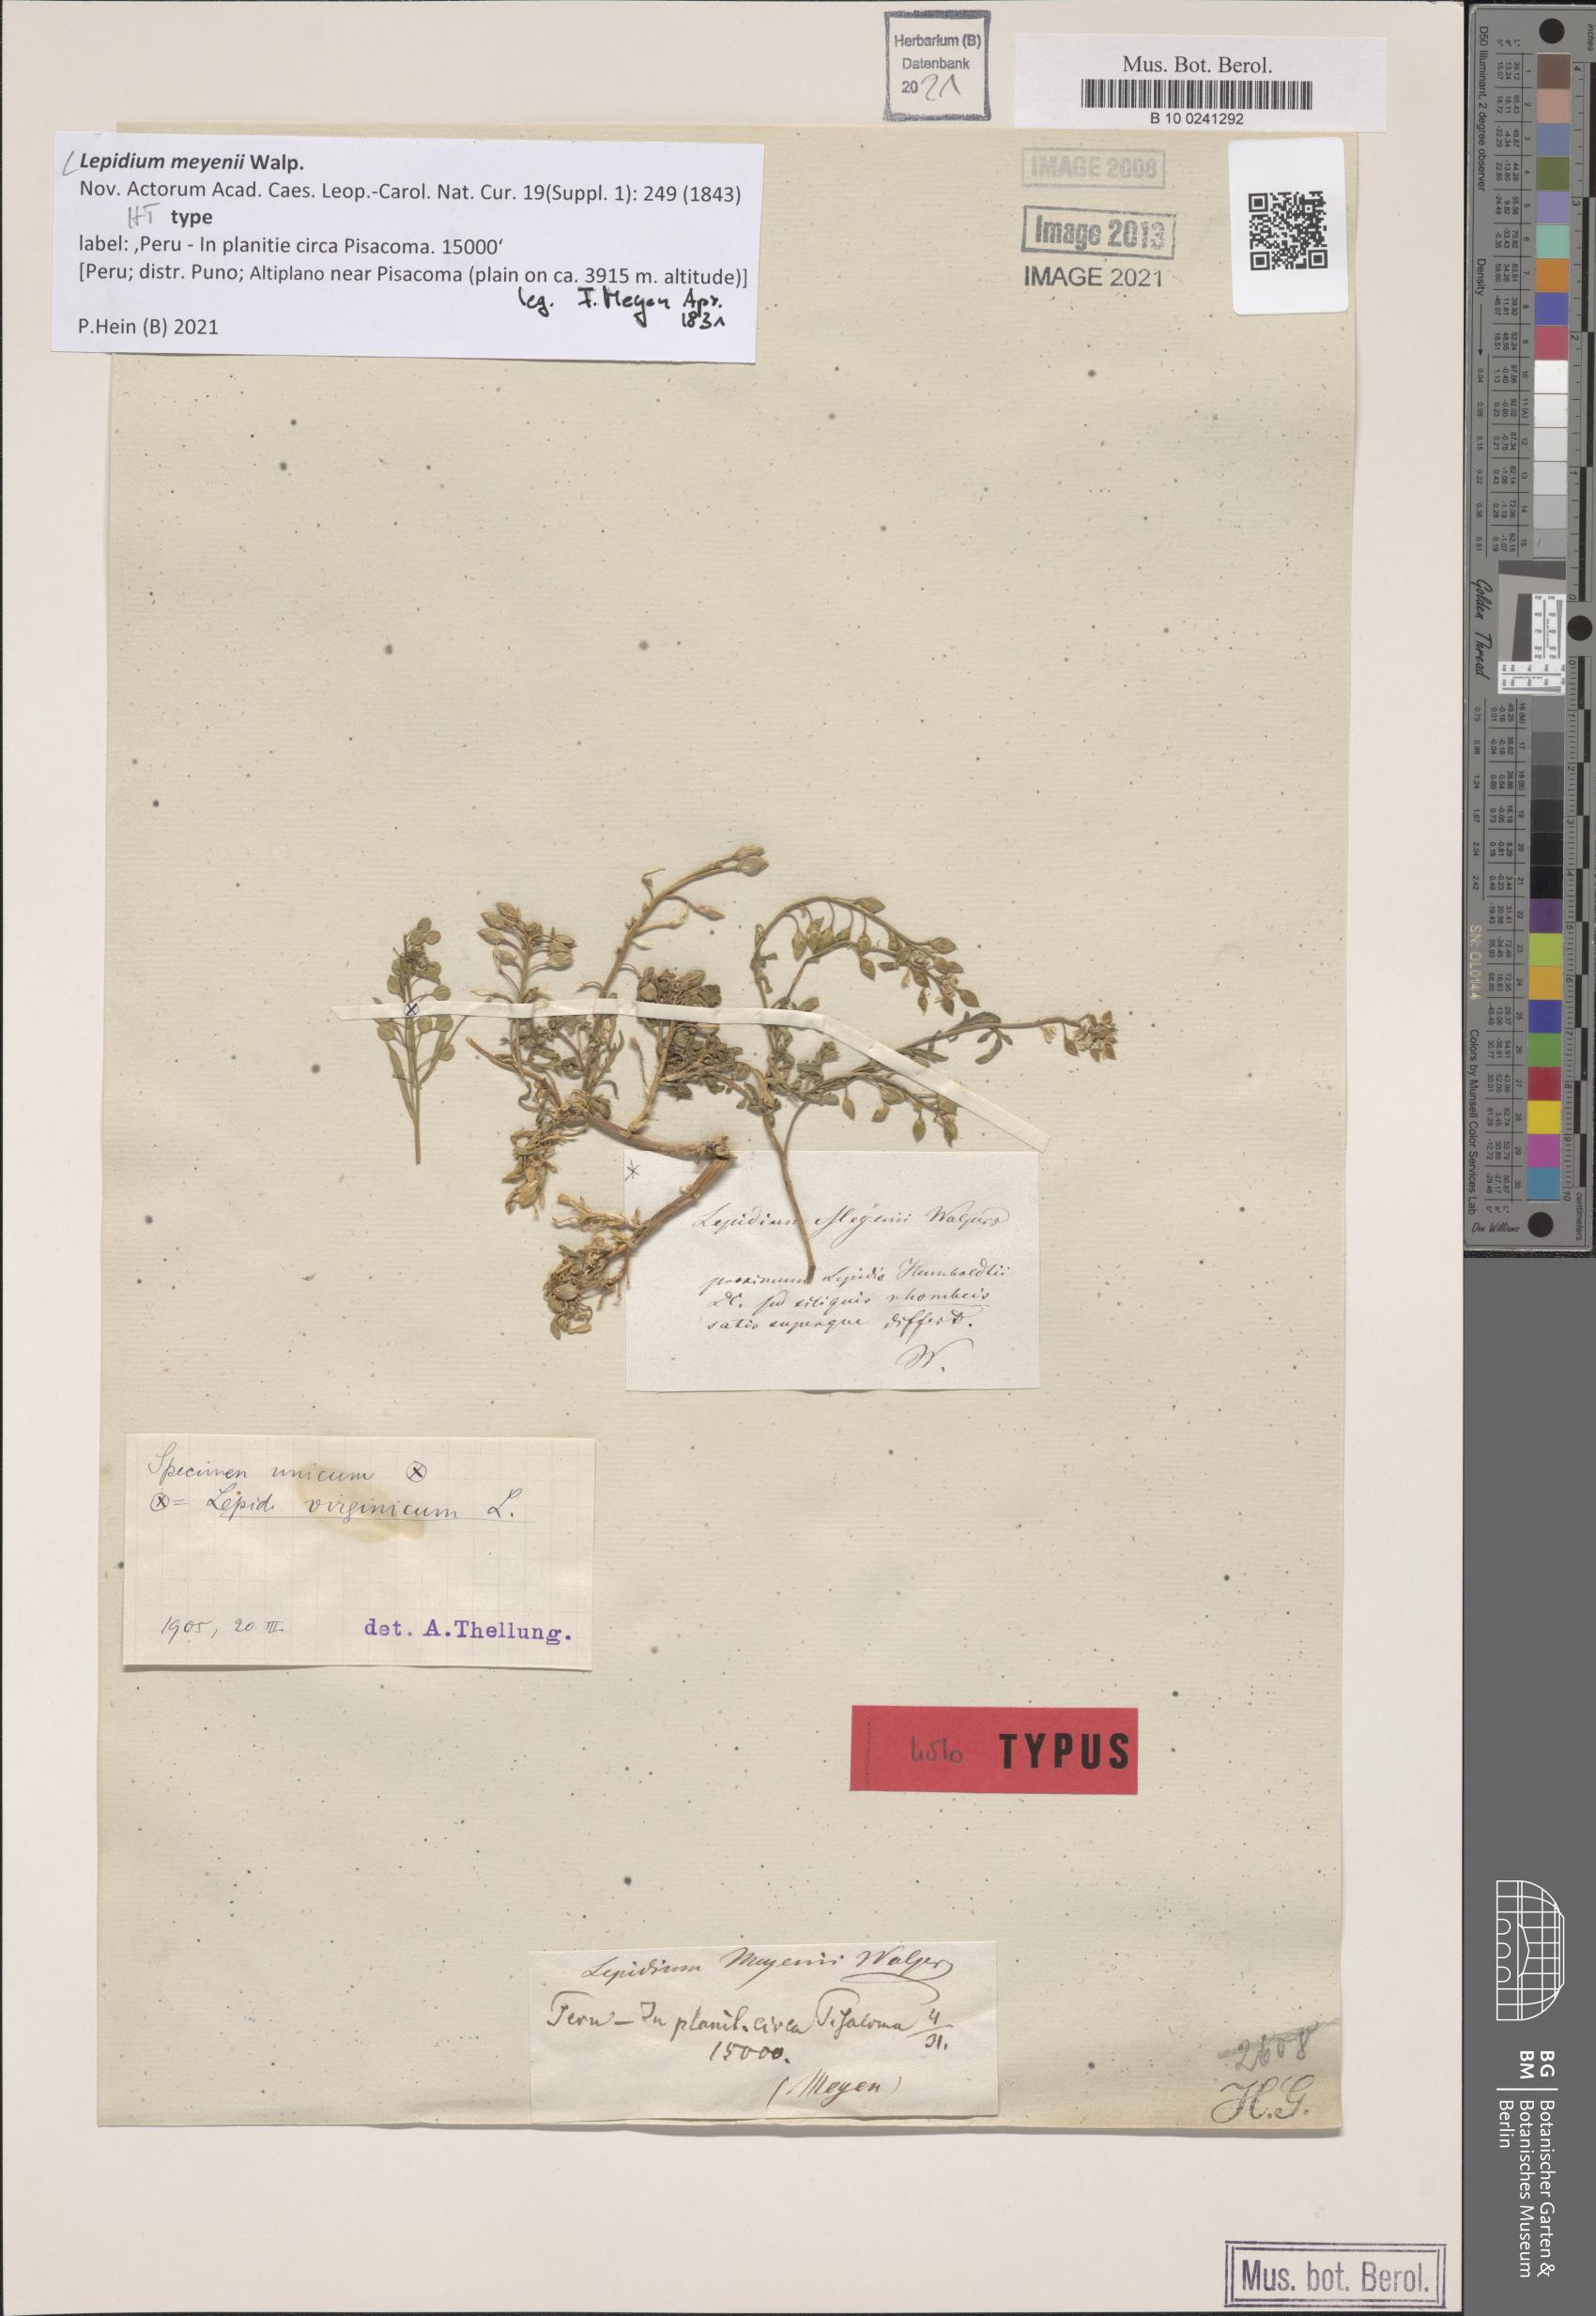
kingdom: Plantae
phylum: Tracheophyta
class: Magnoliopsida
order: Brassicales
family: Brassicaceae
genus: Lepidium
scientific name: Lepidium meyenii
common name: Peruvian-ginseng
